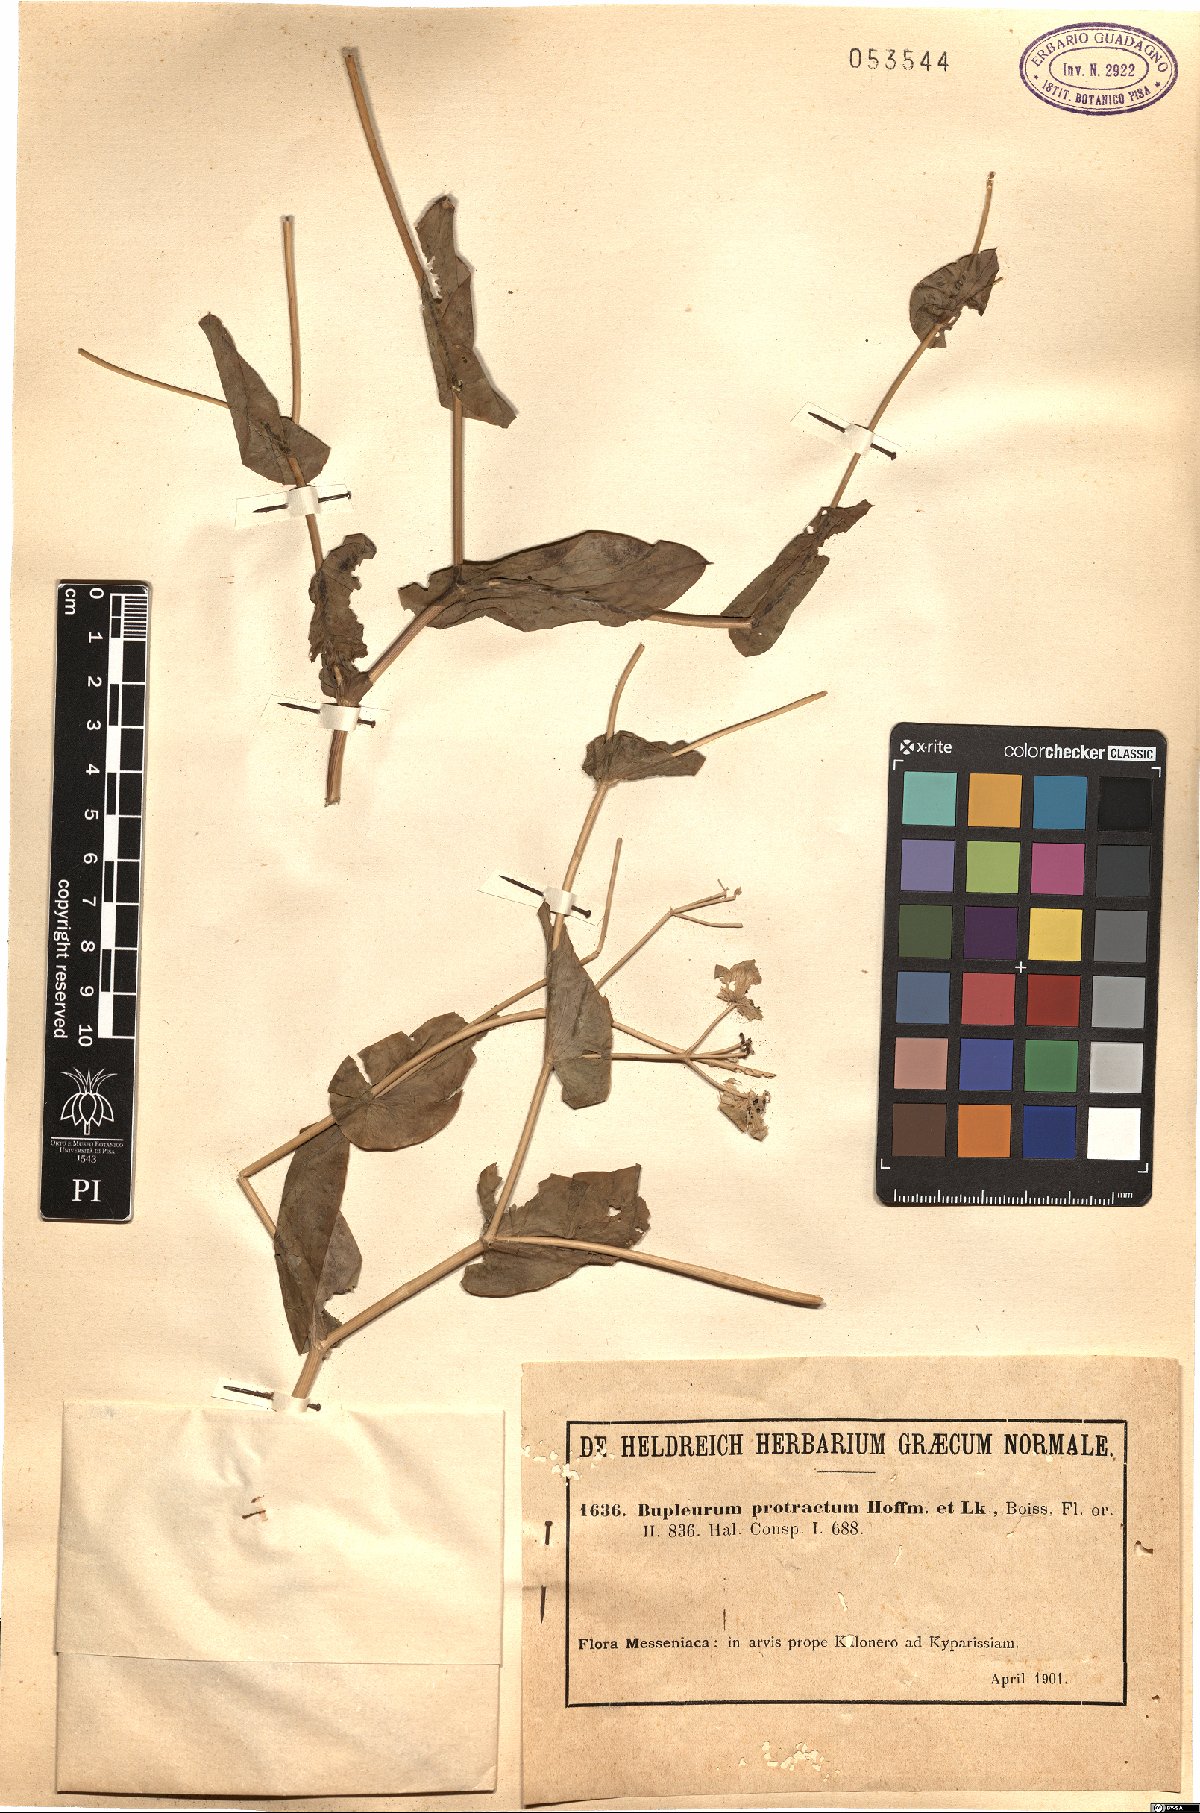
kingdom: Plantae
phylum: Tracheophyta
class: Magnoliopsida
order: Apiales
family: Apiaceae
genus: Bupleurum
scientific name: Bupleurum subovatum
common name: False thorow-wax
